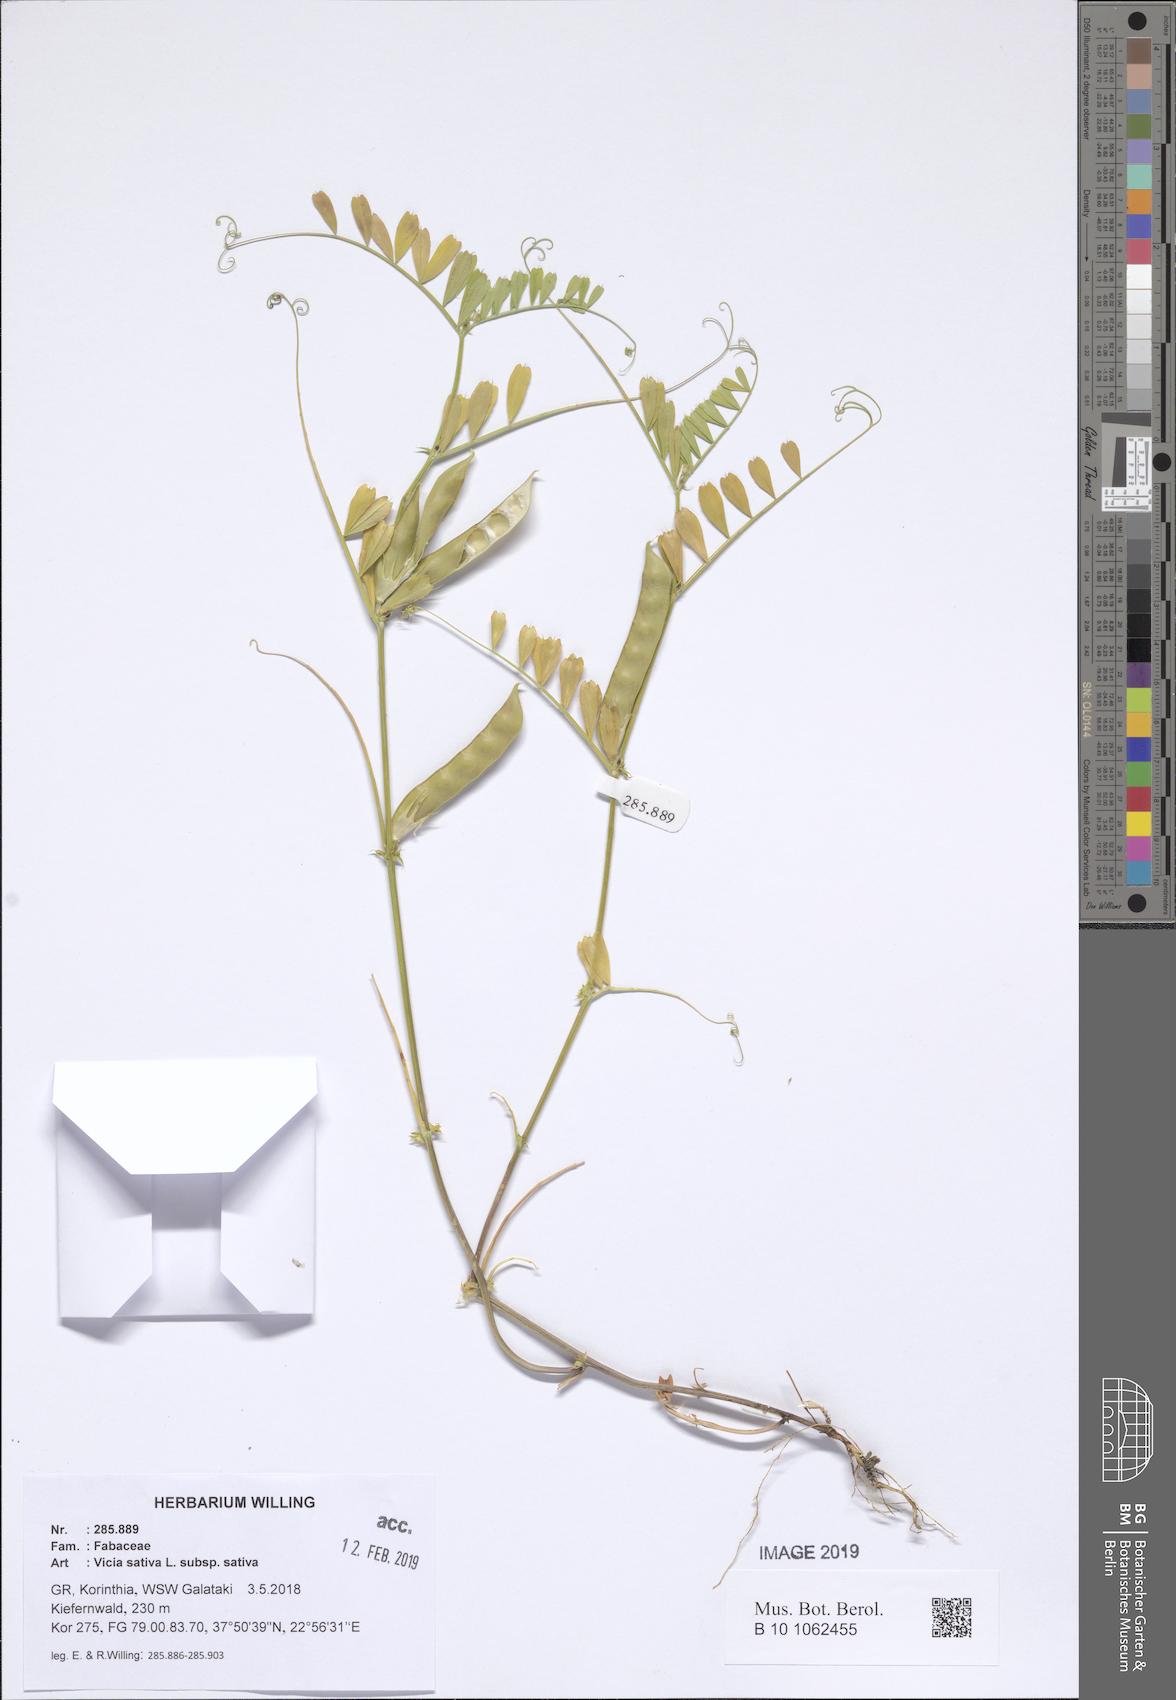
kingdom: Plantae
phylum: Tracheophyta
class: Magnoliopsida
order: Fabales
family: Fabaceae
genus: Vicia
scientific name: Vicia sativa
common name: Garden vetch
